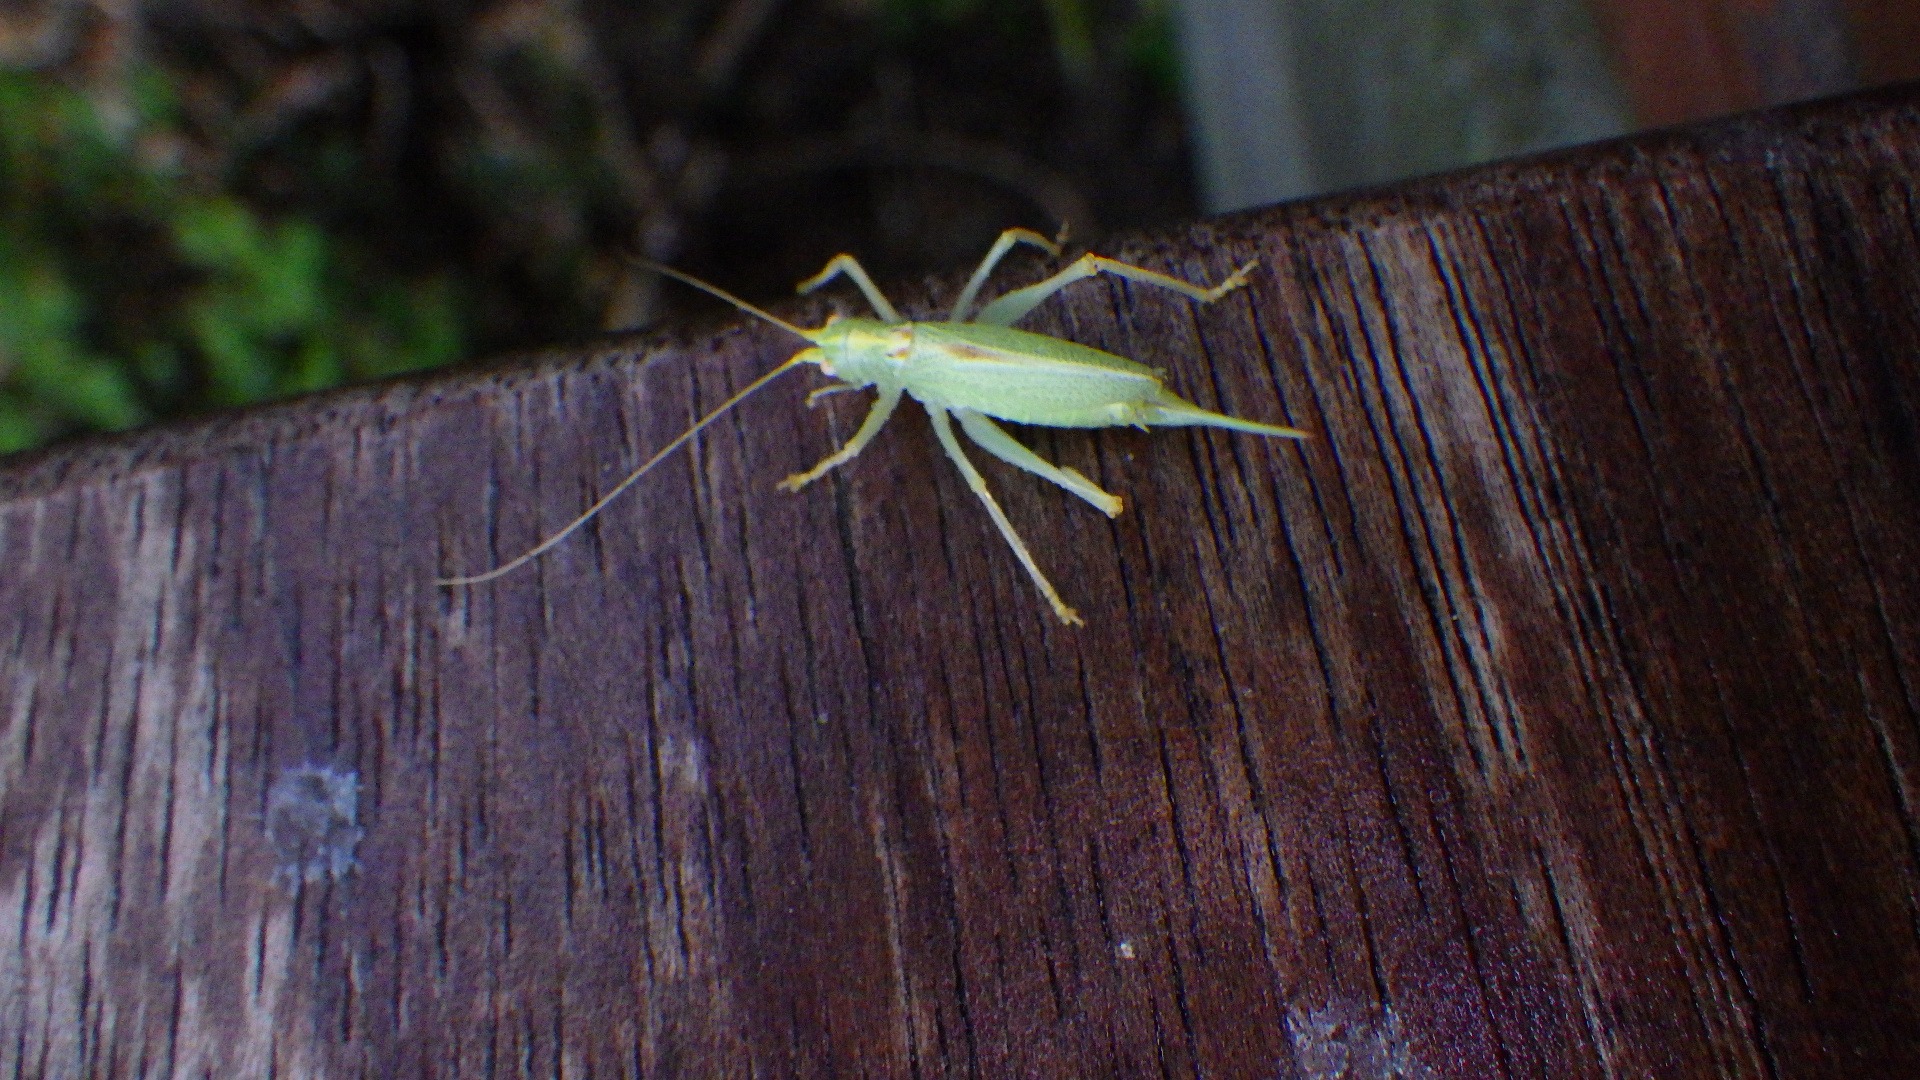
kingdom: Animalia
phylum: Arthropoda
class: Insecta
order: Orthoptera
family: Tettigoniidae
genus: Meconema
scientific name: Meconema thalassinum
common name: Egegræshoppe
